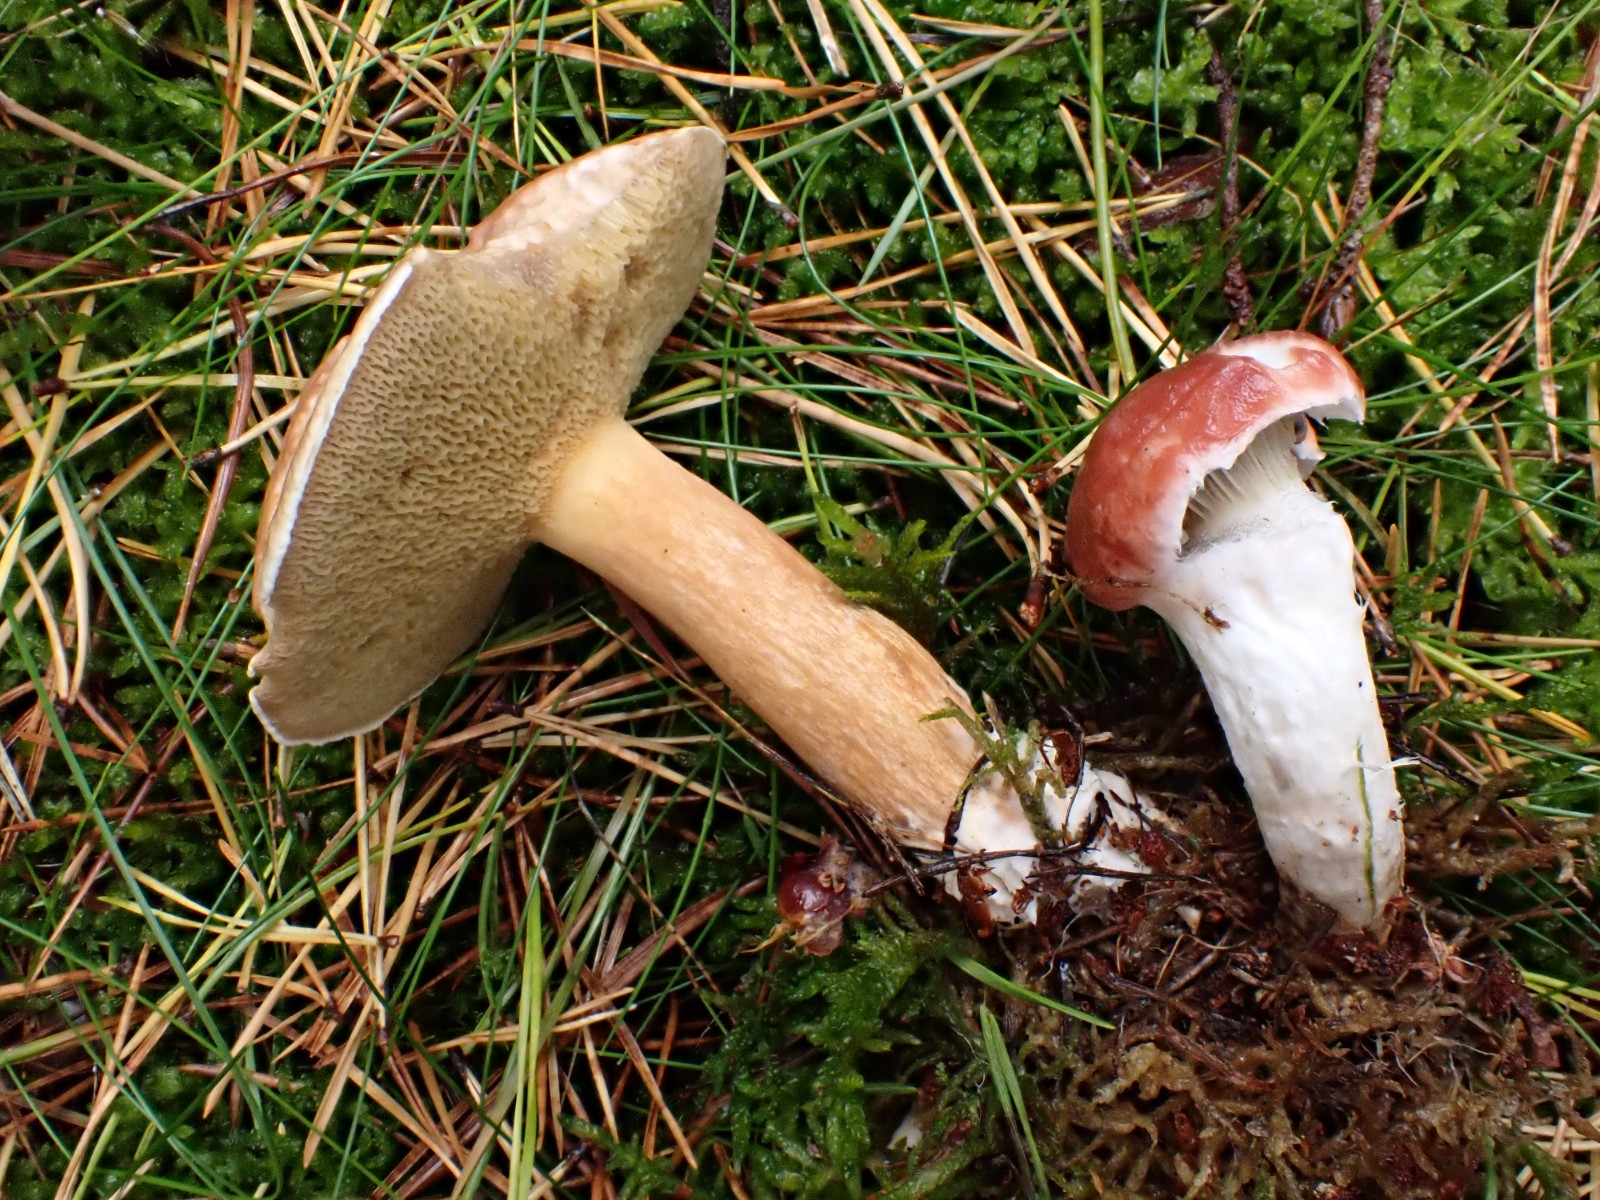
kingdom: Fungi
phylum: Basidiomycota
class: Agaricomycetes
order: Boletales
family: Suillaceae
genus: Suillus
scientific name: Suillus bovinus
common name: grovporet slimrørhat
